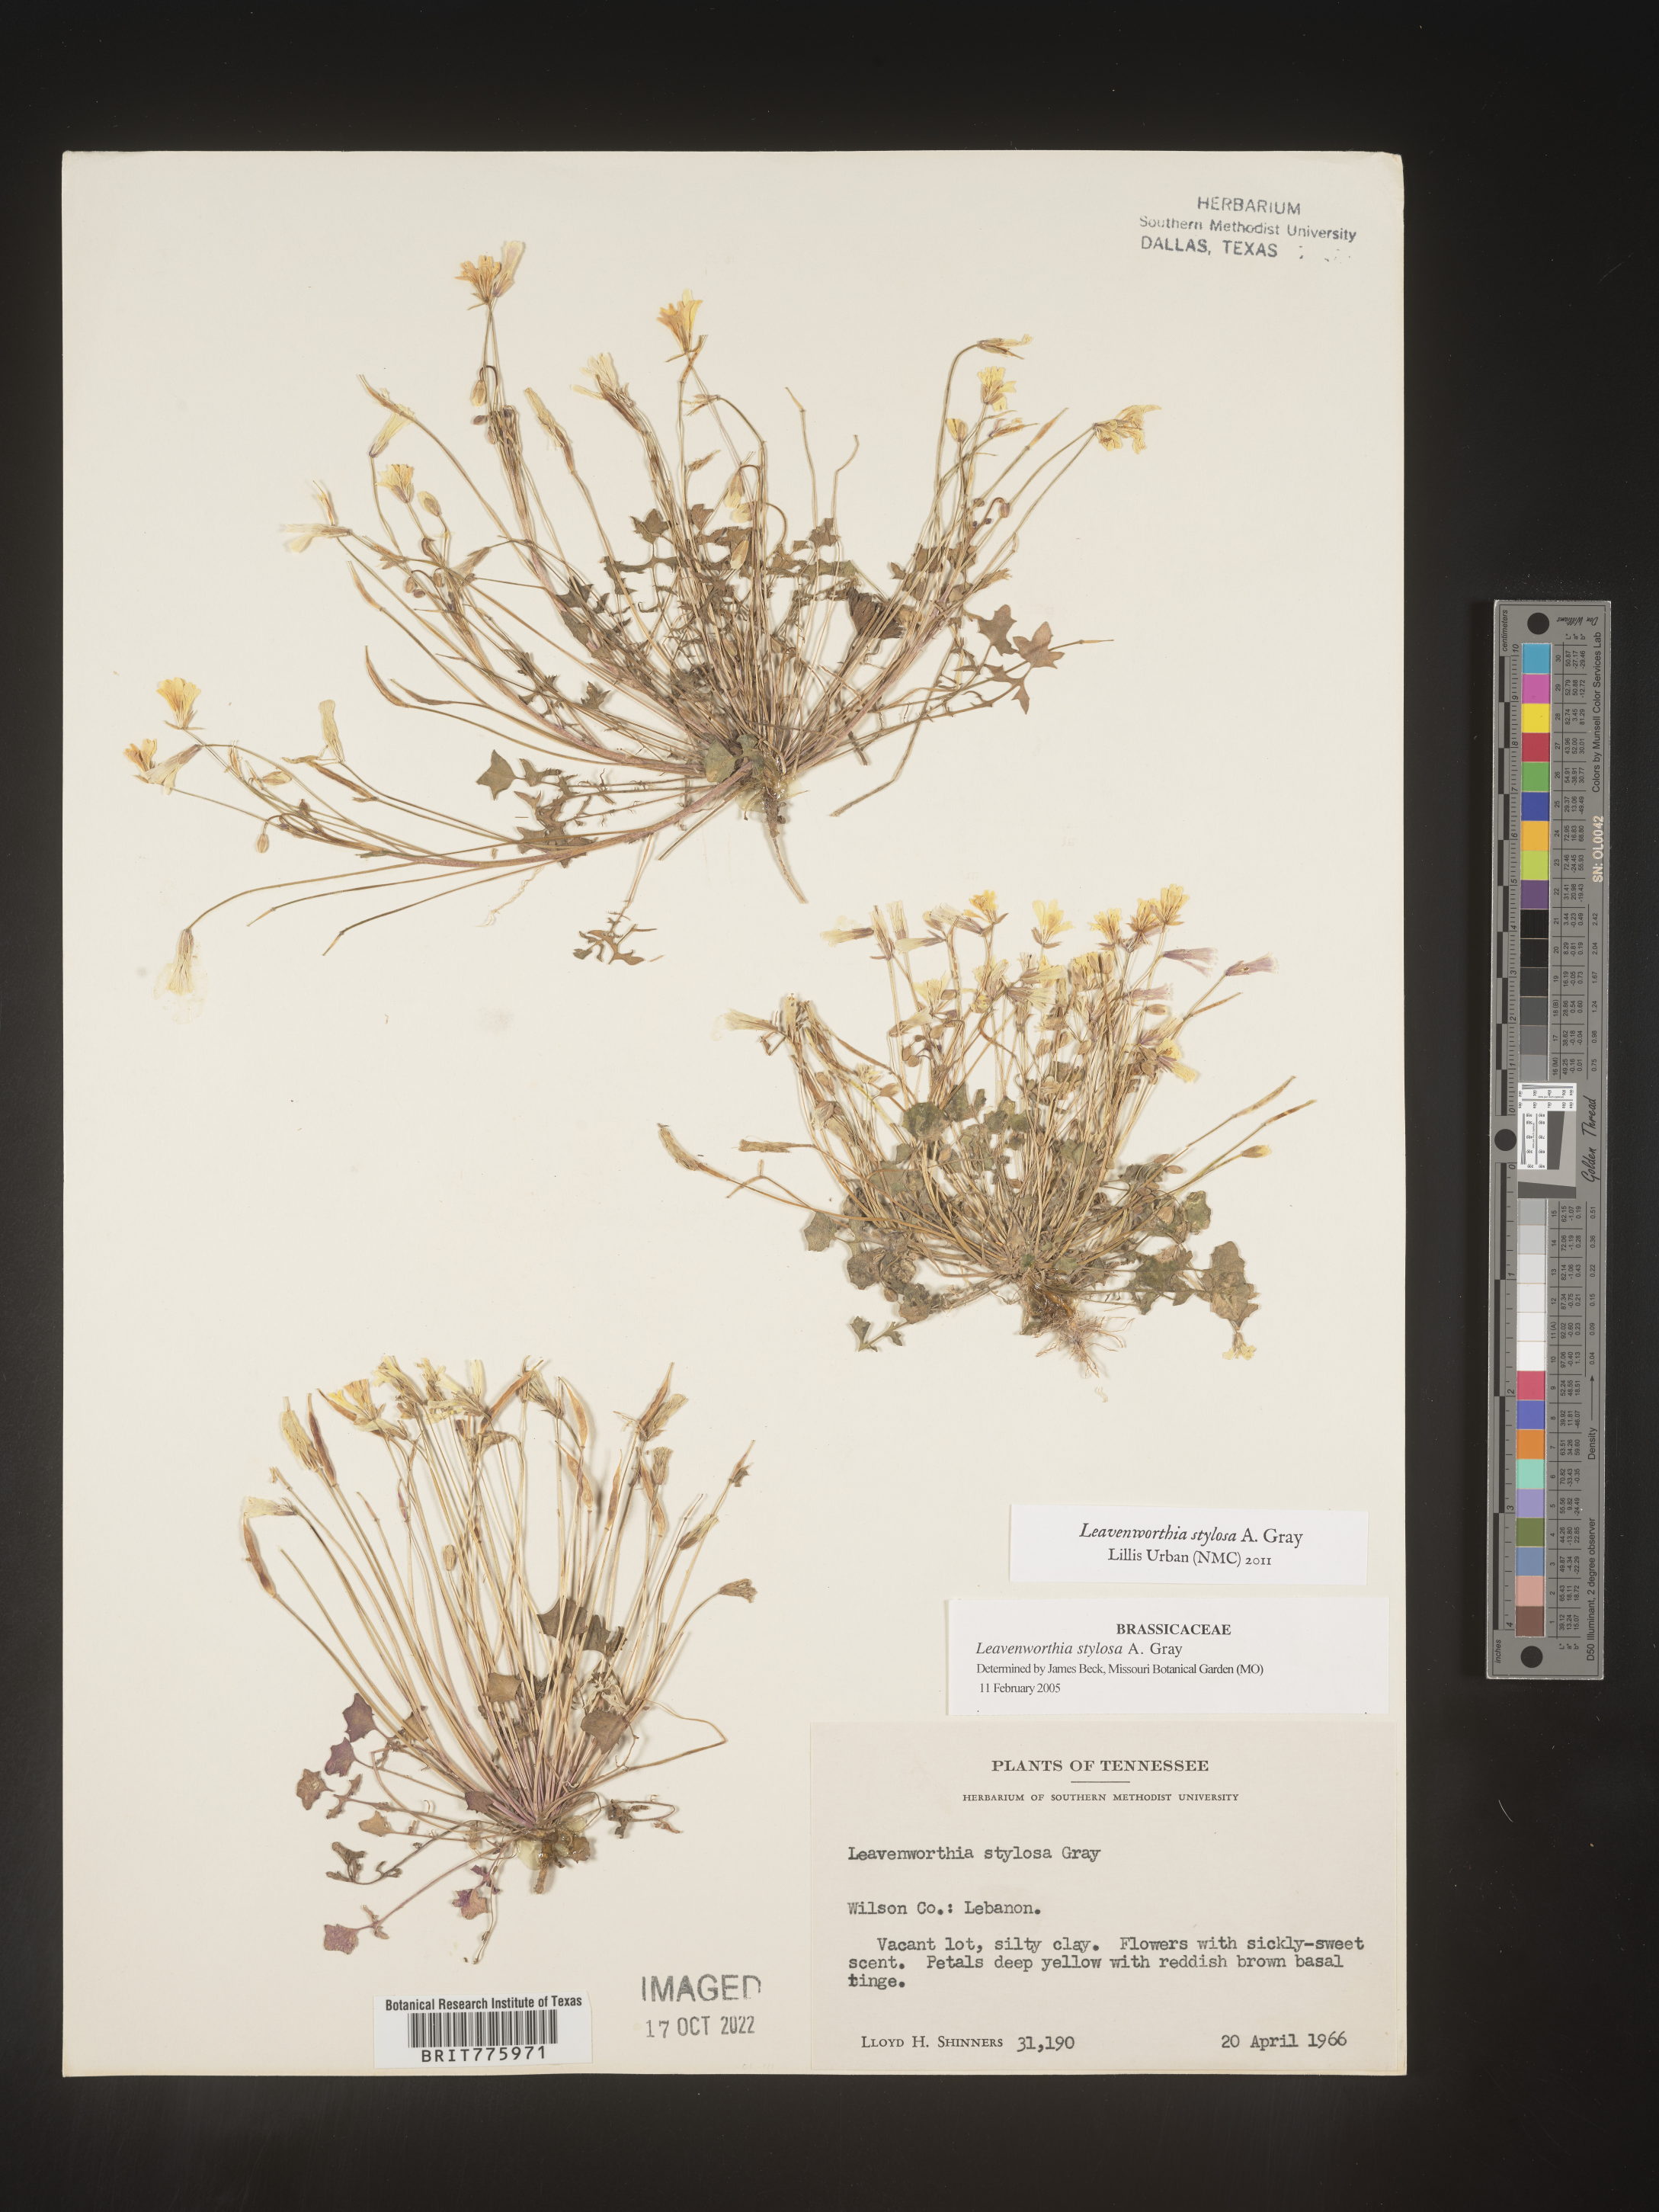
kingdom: Plantae
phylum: Tracheophyta
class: Magnoliopsida
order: Brassicales
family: Brassicaceae
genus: Leavenworthia
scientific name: Leavenworthia
